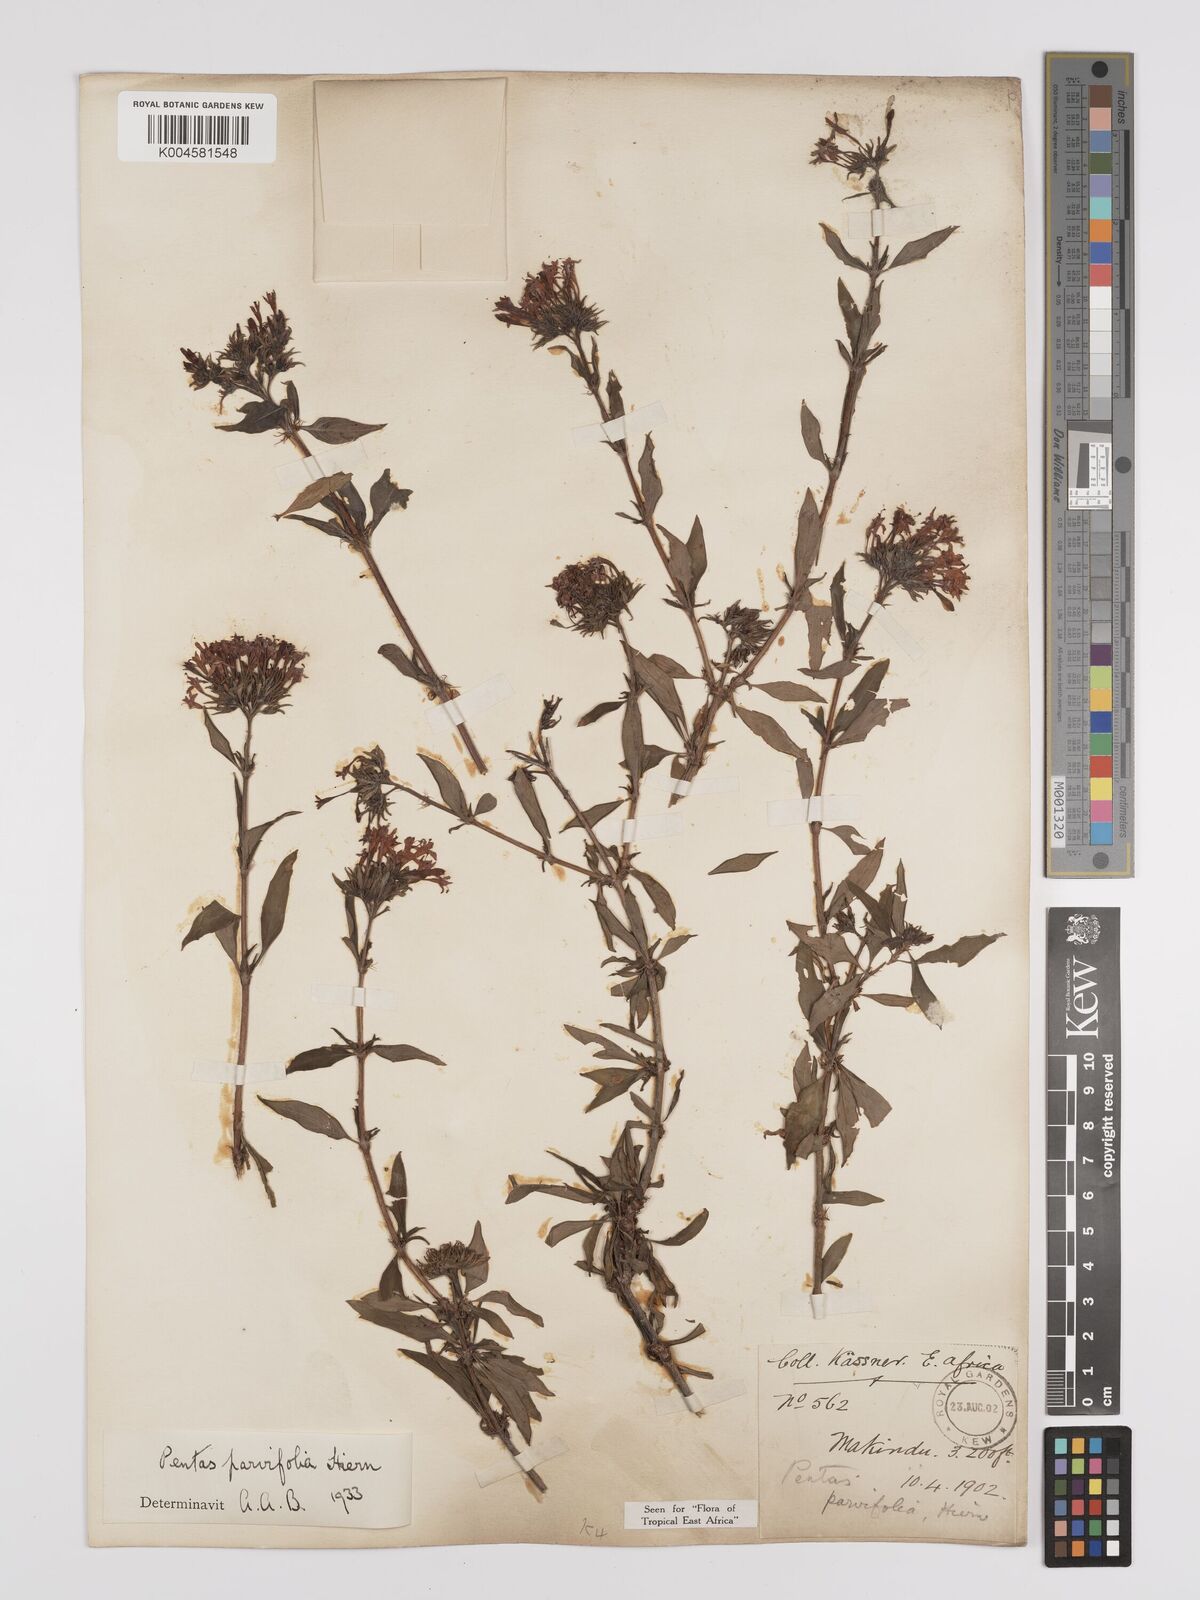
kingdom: Plantae
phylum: Tracheophyta
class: Magnoliopsida
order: Gentianales
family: Rubiaceae
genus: Rhodopentas
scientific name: Rhodopentas parvifolia
